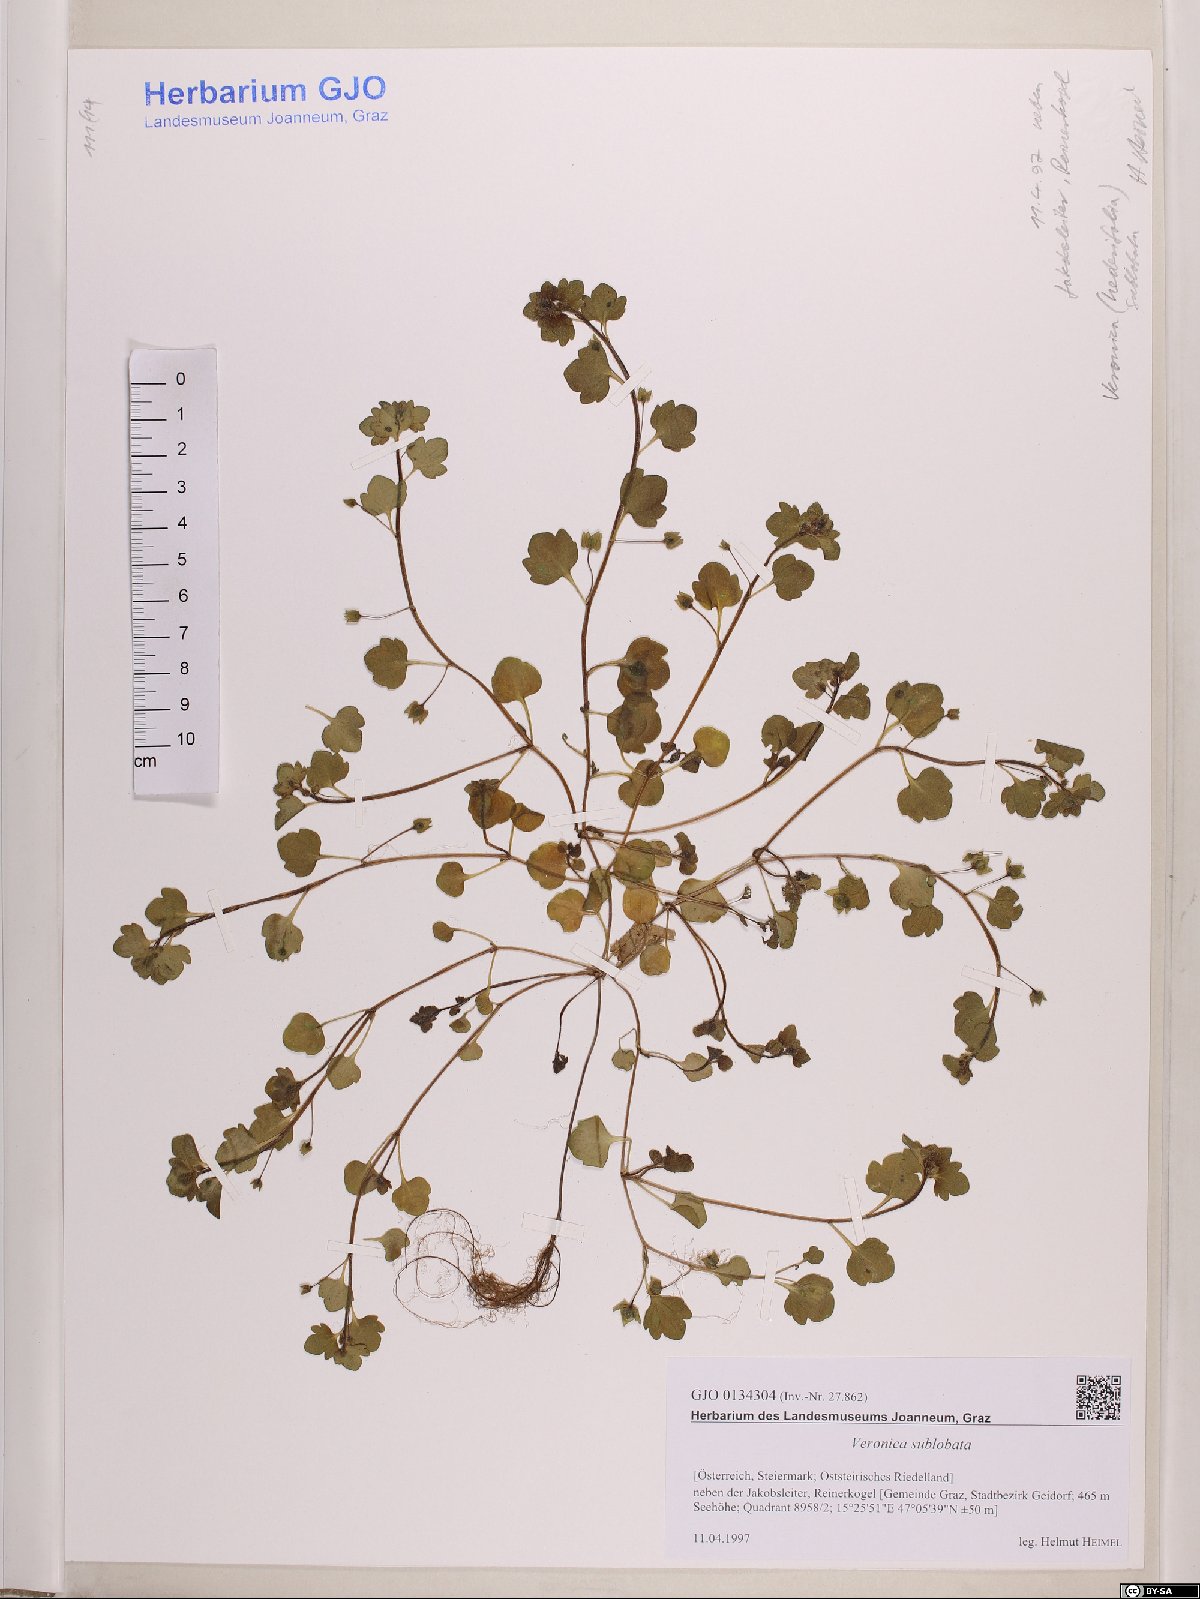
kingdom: Plantae
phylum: Tracheophyta
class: Magnoliopsida
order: Lamiales
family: Plantaginaceae
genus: Veronica
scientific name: Veronica sublobata
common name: False ivy-leaved speedwell
